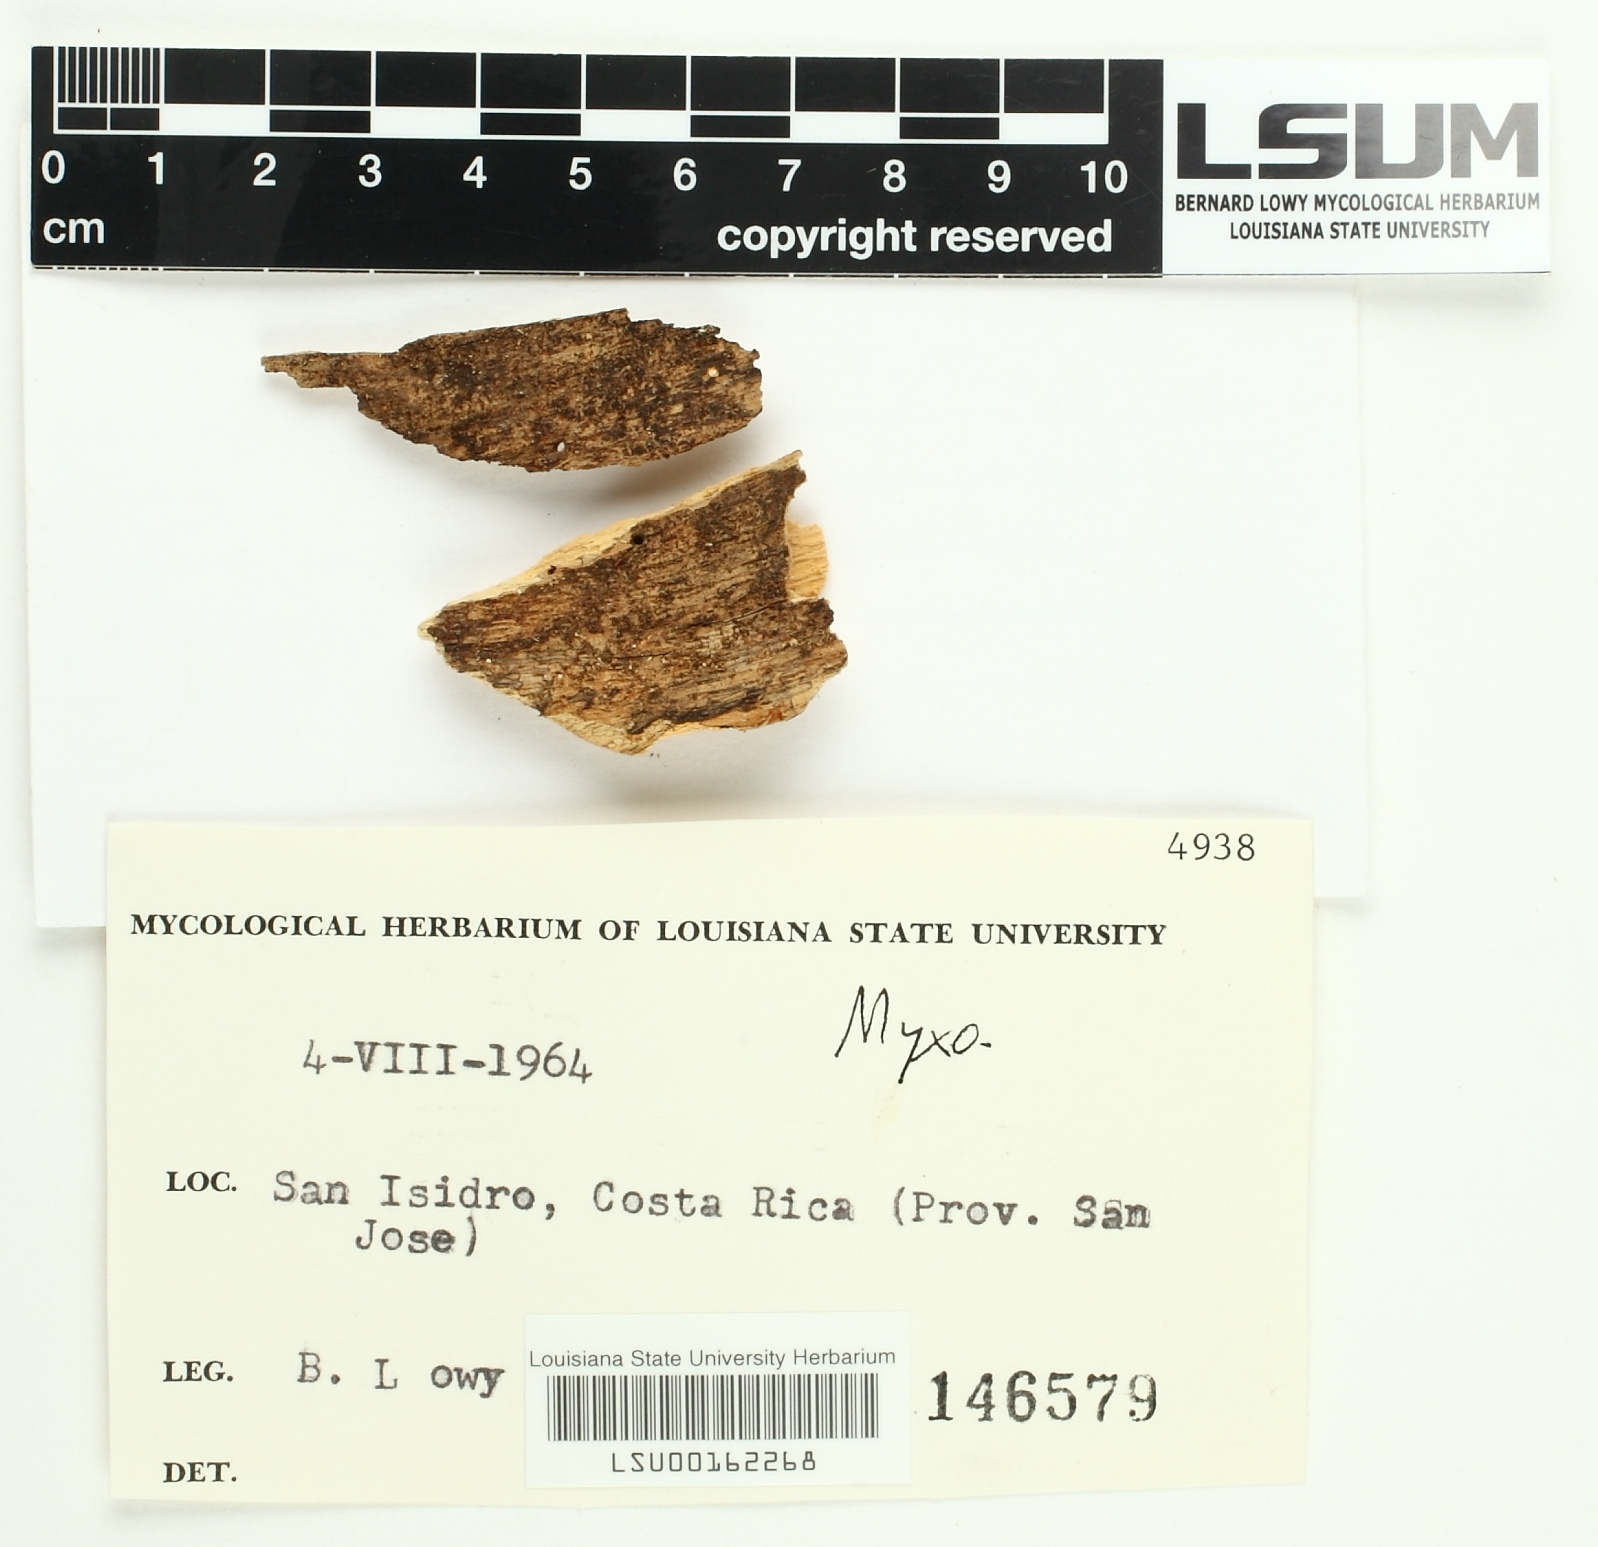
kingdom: Fungi
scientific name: Fungi
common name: Fungi
